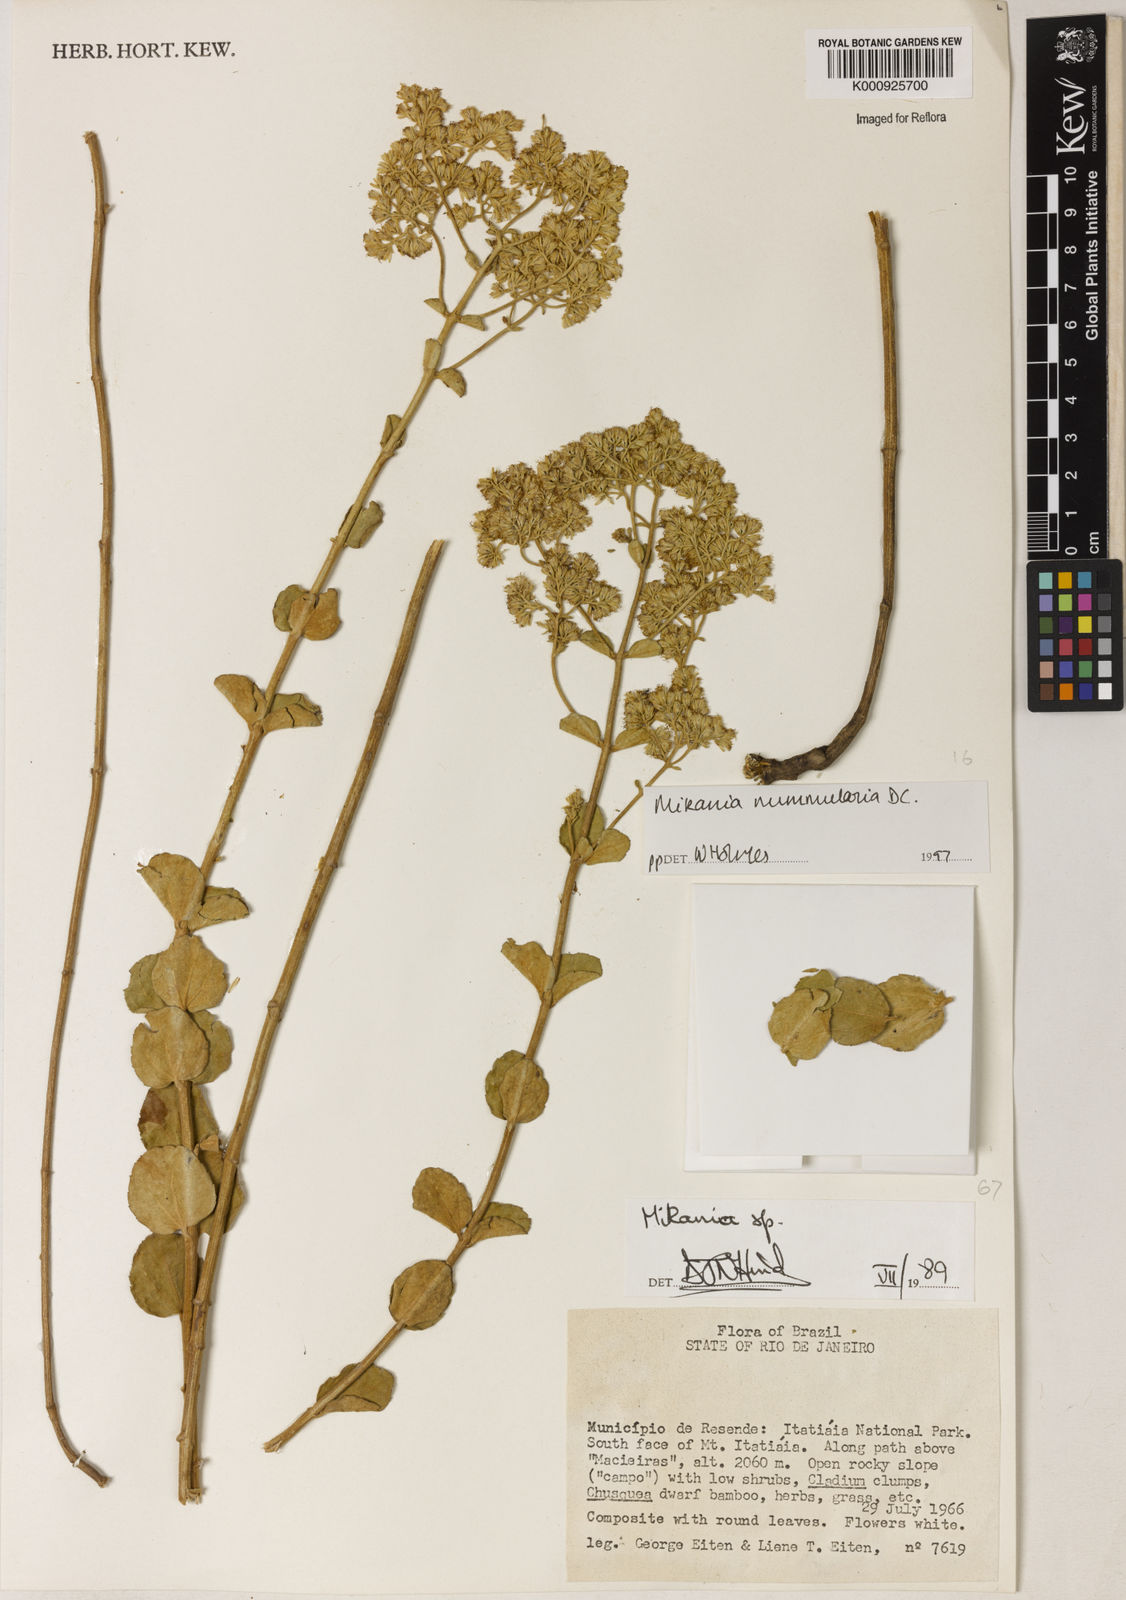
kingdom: Plantae
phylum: Tracheophyta
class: Magnoliopsida
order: Asterales
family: Asteraceae
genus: Mikania
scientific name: Mikania nummularia
